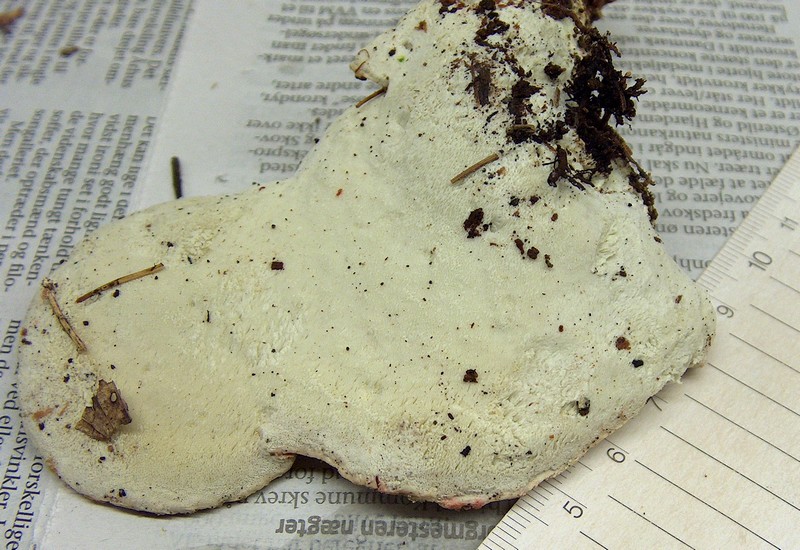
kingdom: Fungi
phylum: Basidiomycota
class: Agaricomycetes
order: Polyporales
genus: Calcipostia
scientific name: Calcipostia guttulata
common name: dråbe-kødporesvamp
